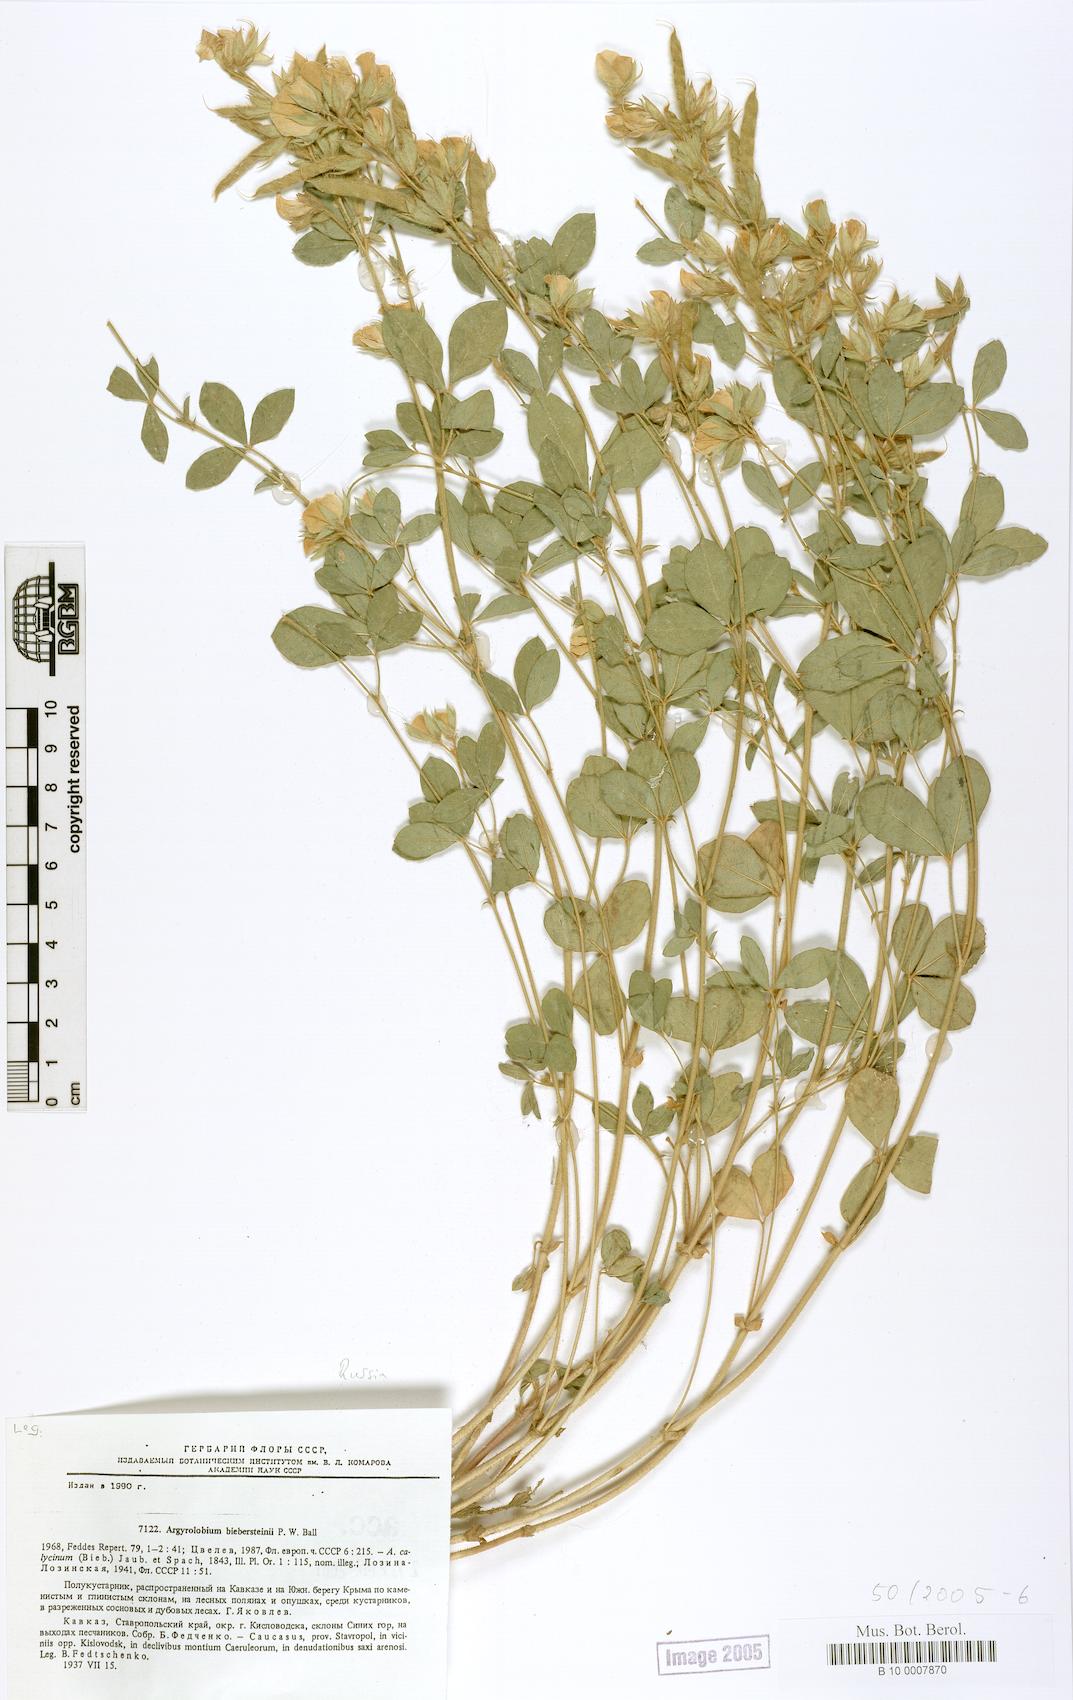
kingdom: Plantae
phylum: Tracheophyta
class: Magnoliopsida
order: Fabales
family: Fabaceae
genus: Argyrolobium
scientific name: Argyrolobium biebersteinii
